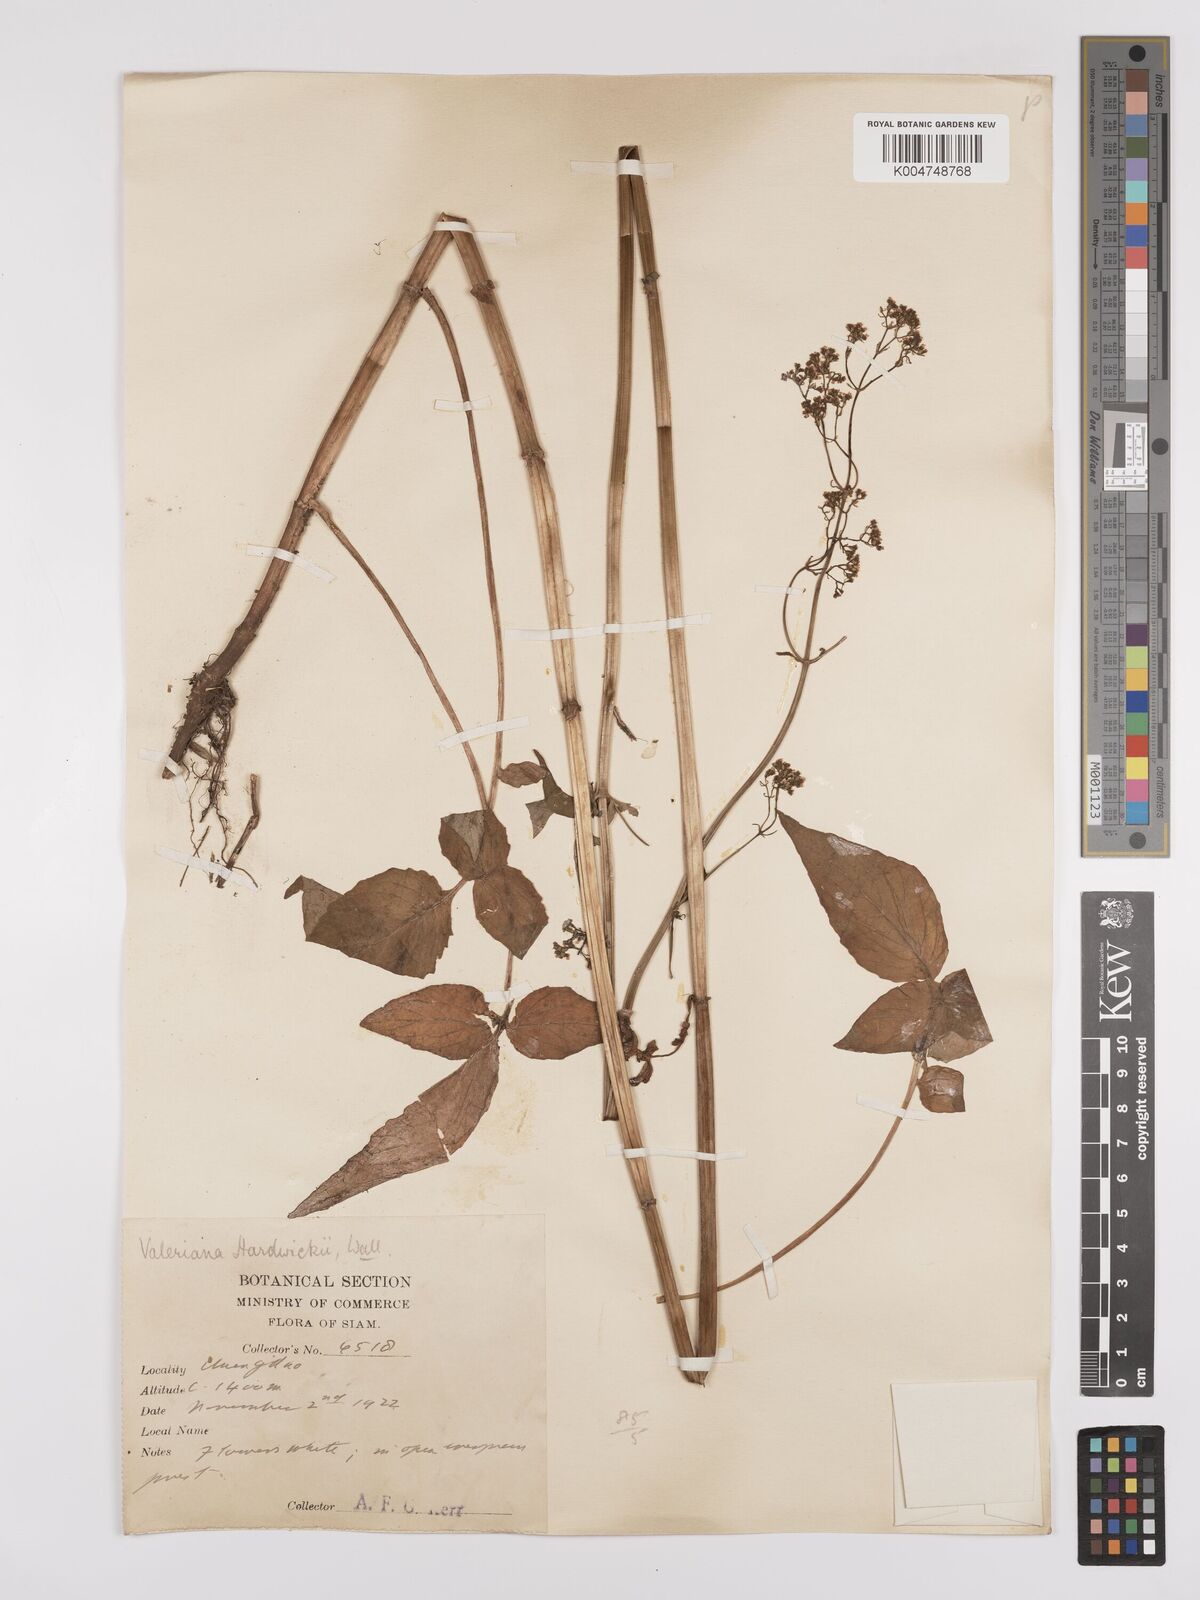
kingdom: Plantae
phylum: Tracheophyta
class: Magnoliopsida
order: Dipsacales
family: Caprifoliaceae
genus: Valeriana
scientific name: Valeriana hardwickei
